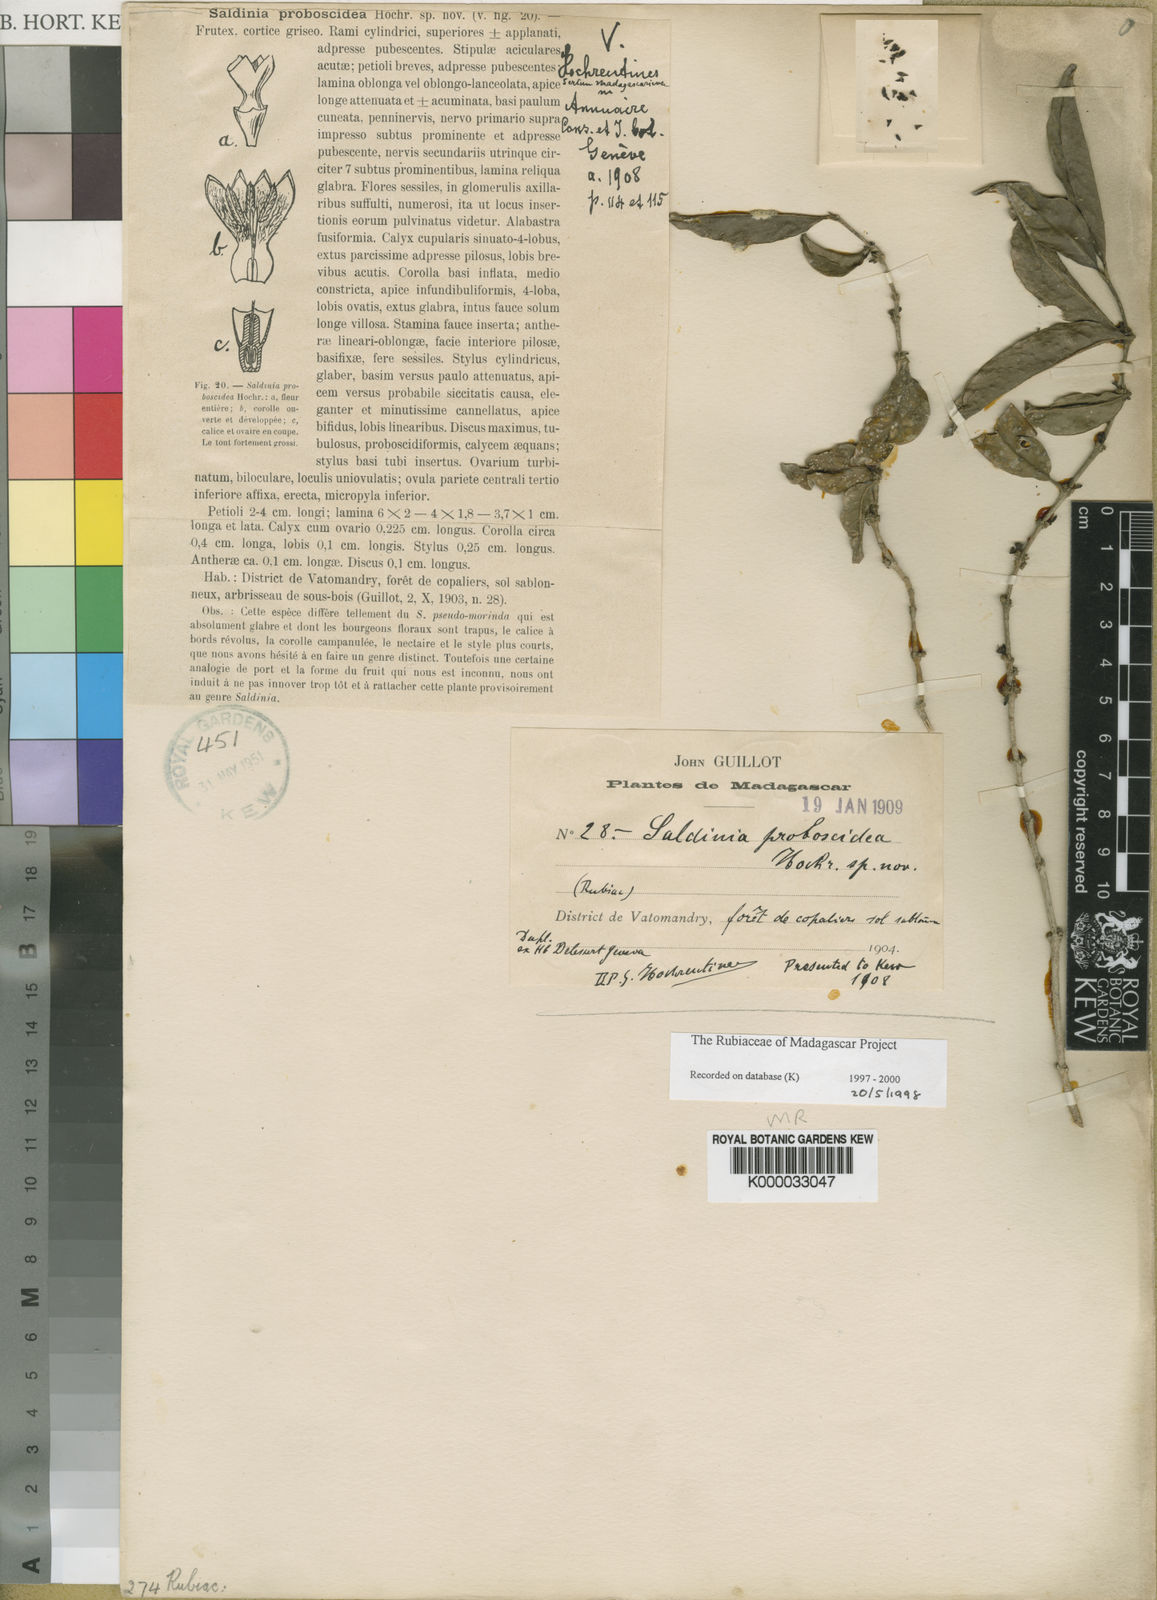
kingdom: Plantae
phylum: Tracheophyta
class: Magnoliopsida
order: Gentianales
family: Rubiaceae
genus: Saldinia
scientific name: Saldinia proboscidea
